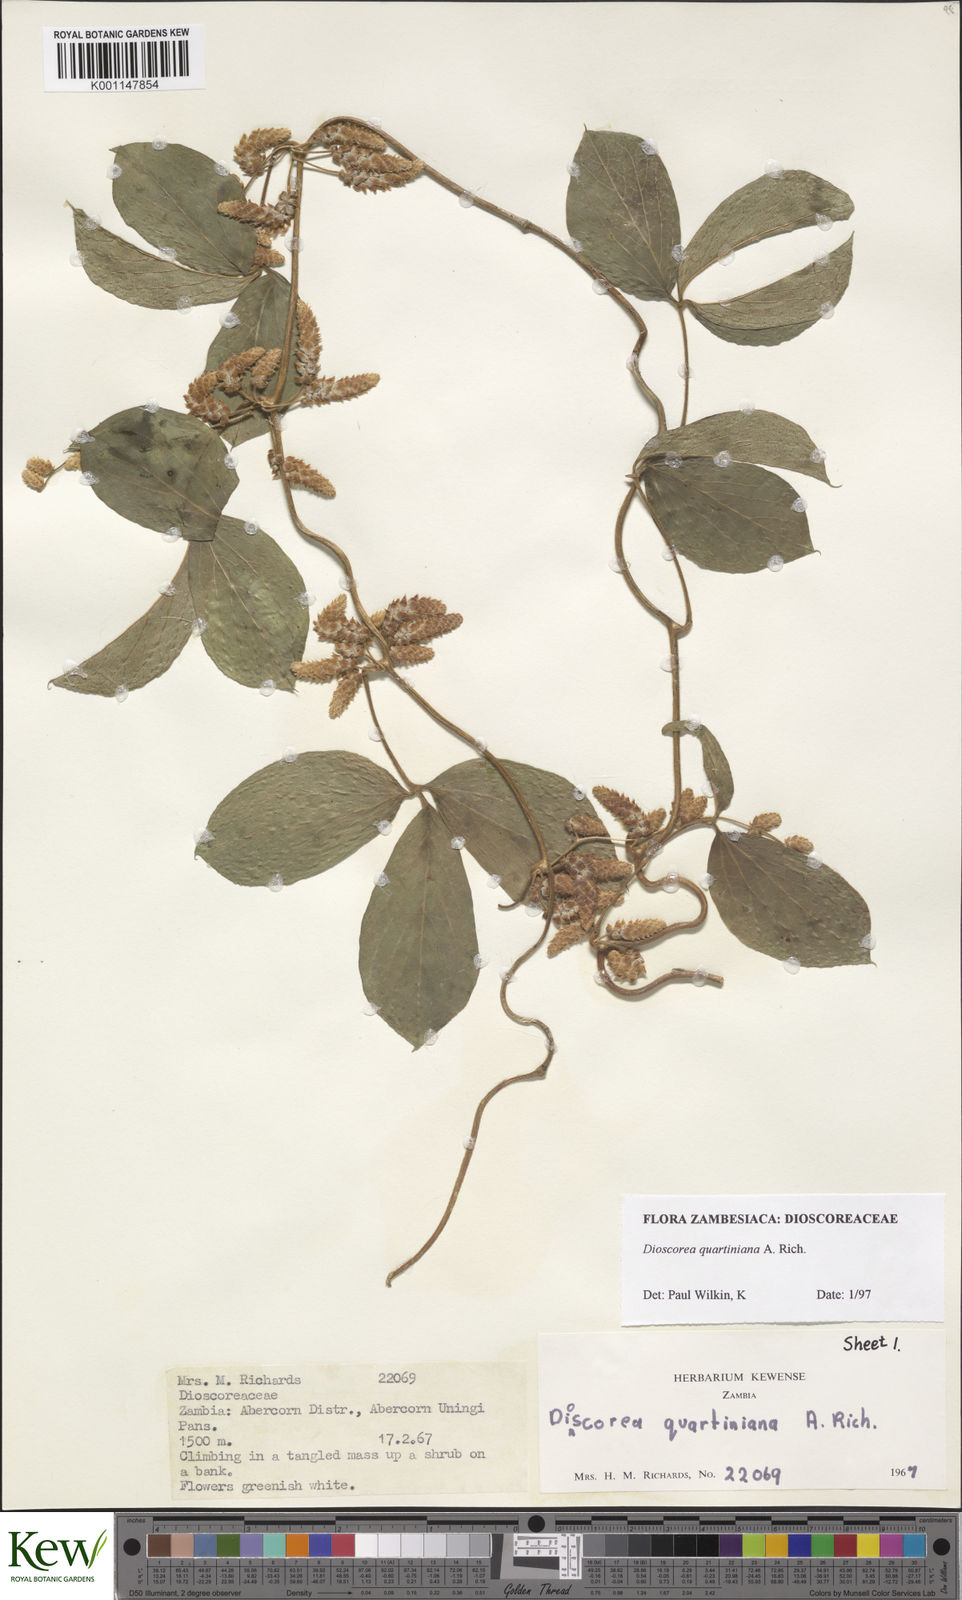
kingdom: Plantae
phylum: Tracheophyta
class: Liliopsida
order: Dioscoreales
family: Dioscoreaceae
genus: Dioscorea
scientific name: Dioscorea quartiniana
